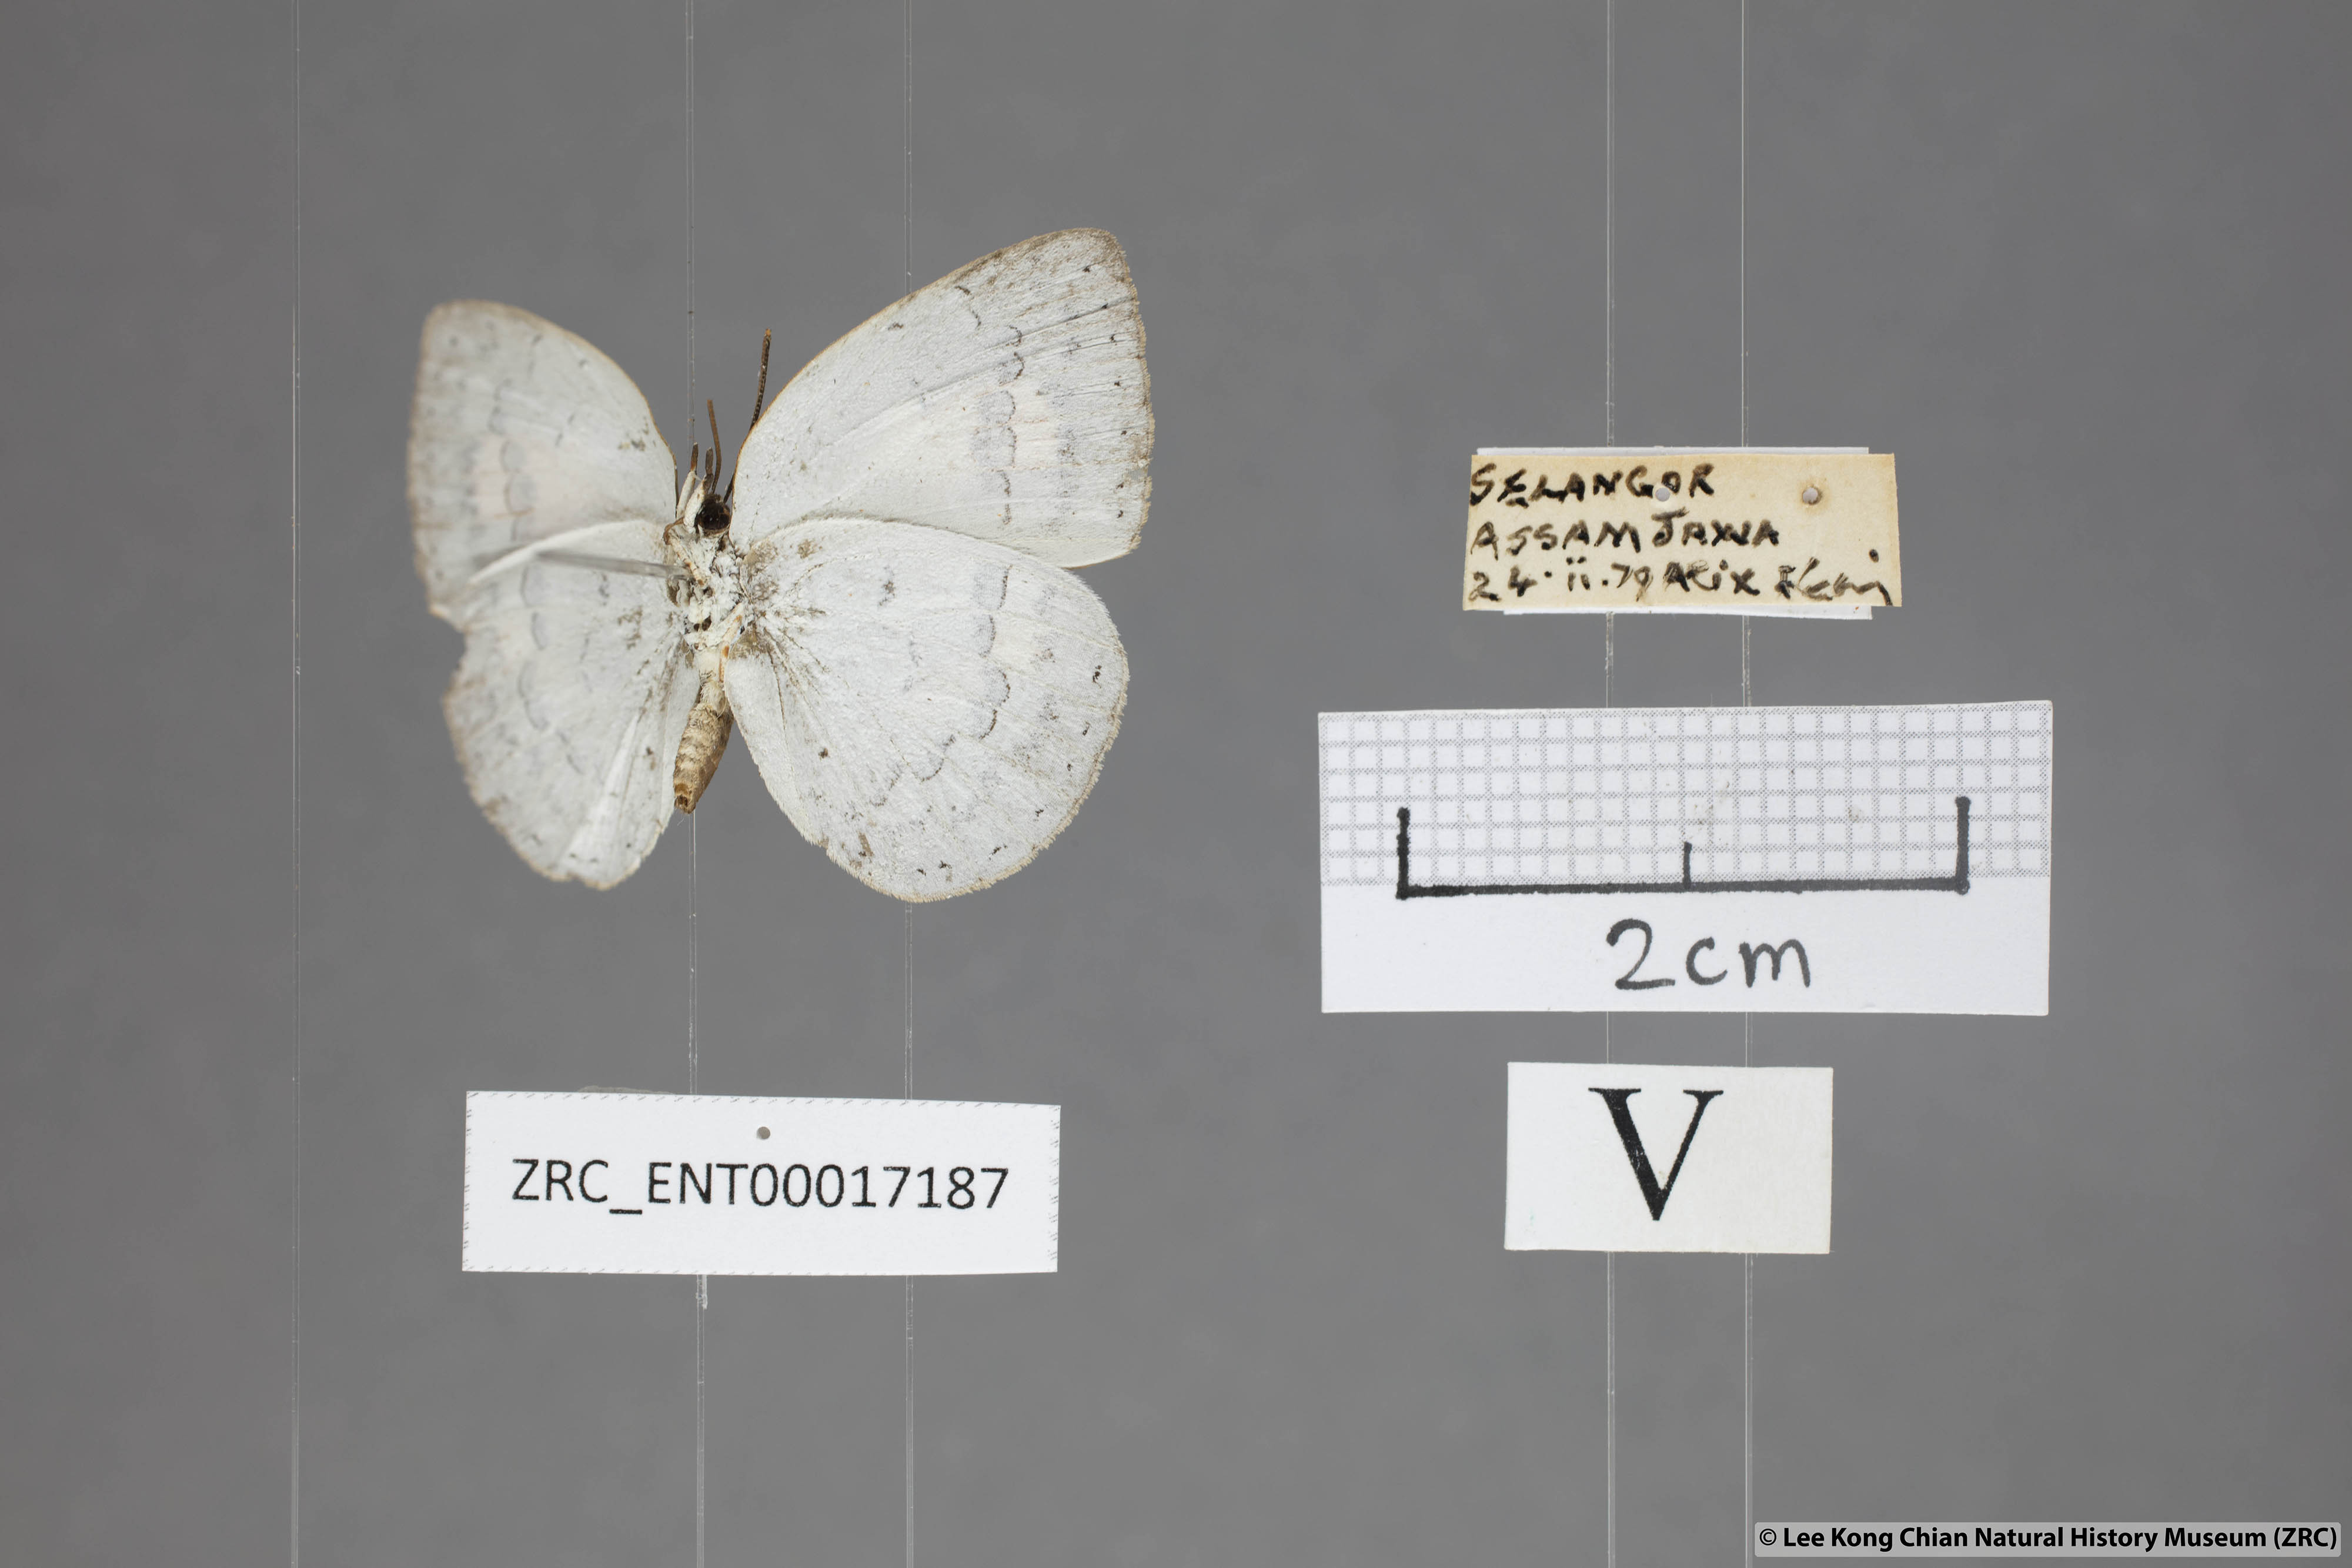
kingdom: Animalia
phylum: Arthropoda
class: Insecta
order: Lepidoptera
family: Lycaenidae
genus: Curetis
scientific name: Curetis saronis
